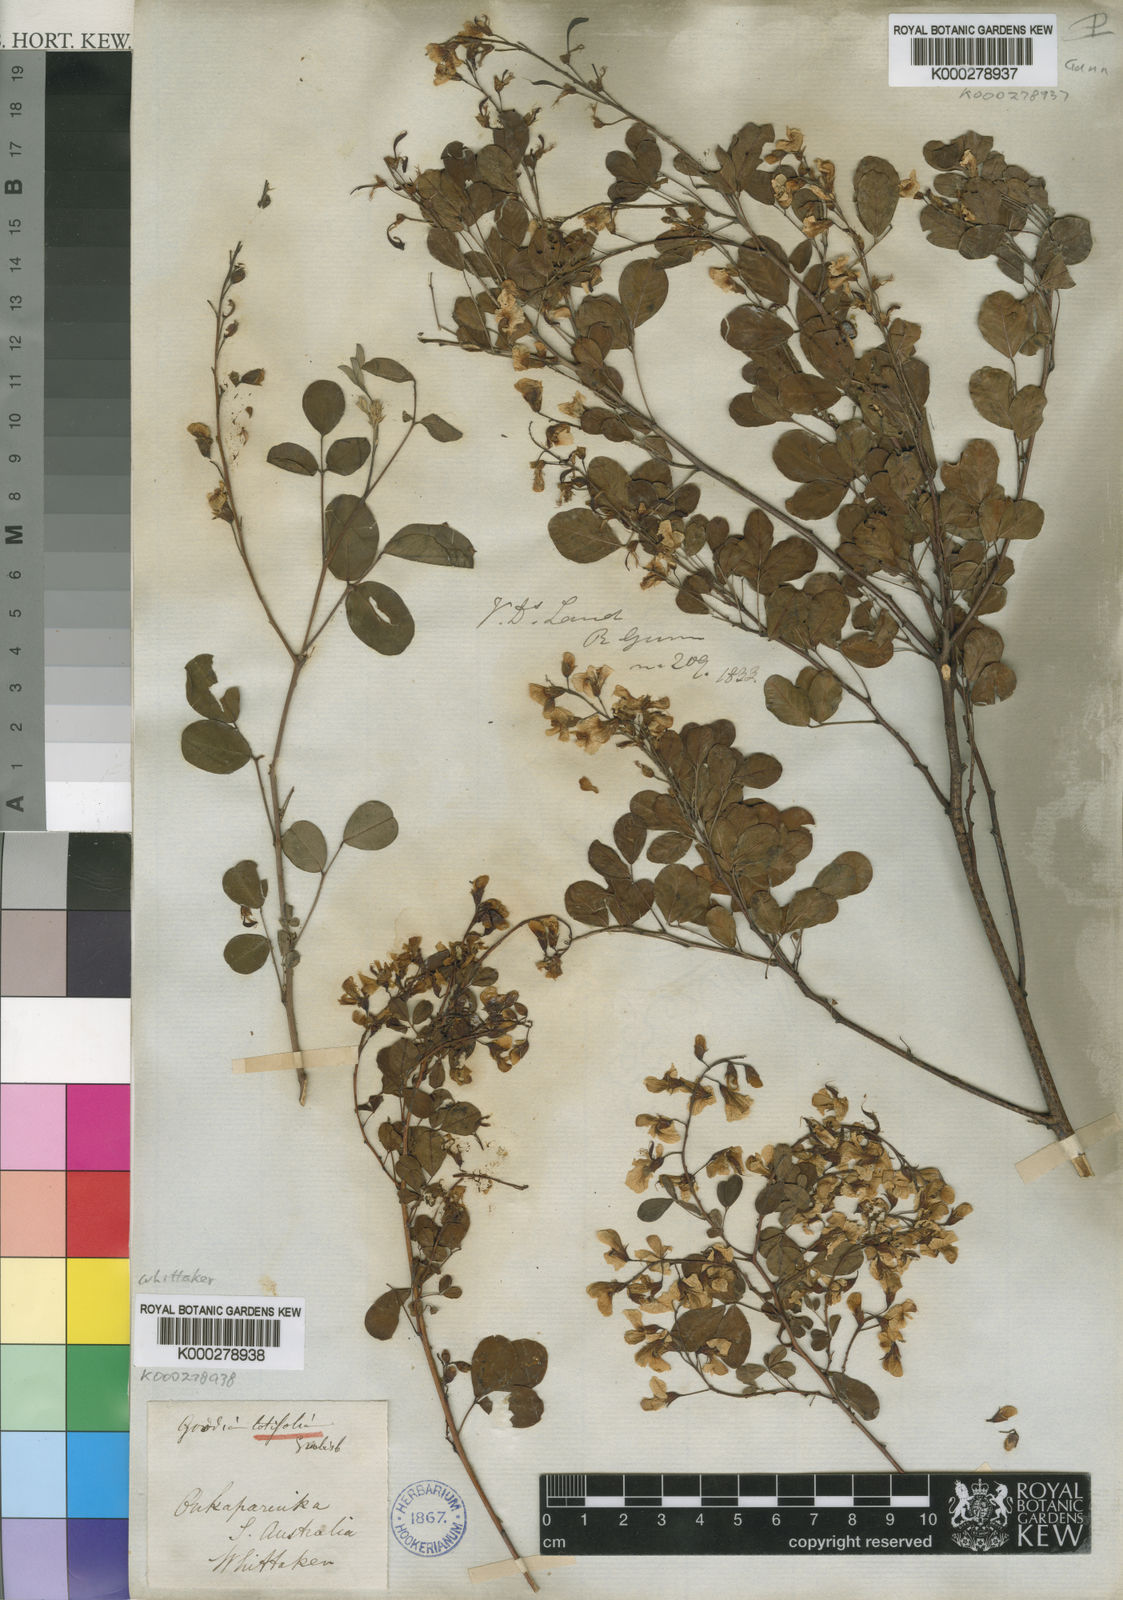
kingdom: Plantae
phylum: Tracheophyta
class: Magnoliopsida
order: Fabales
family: Fabaceae
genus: Goodia
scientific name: Goodia lotifolia
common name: Cloverleaf-poison
